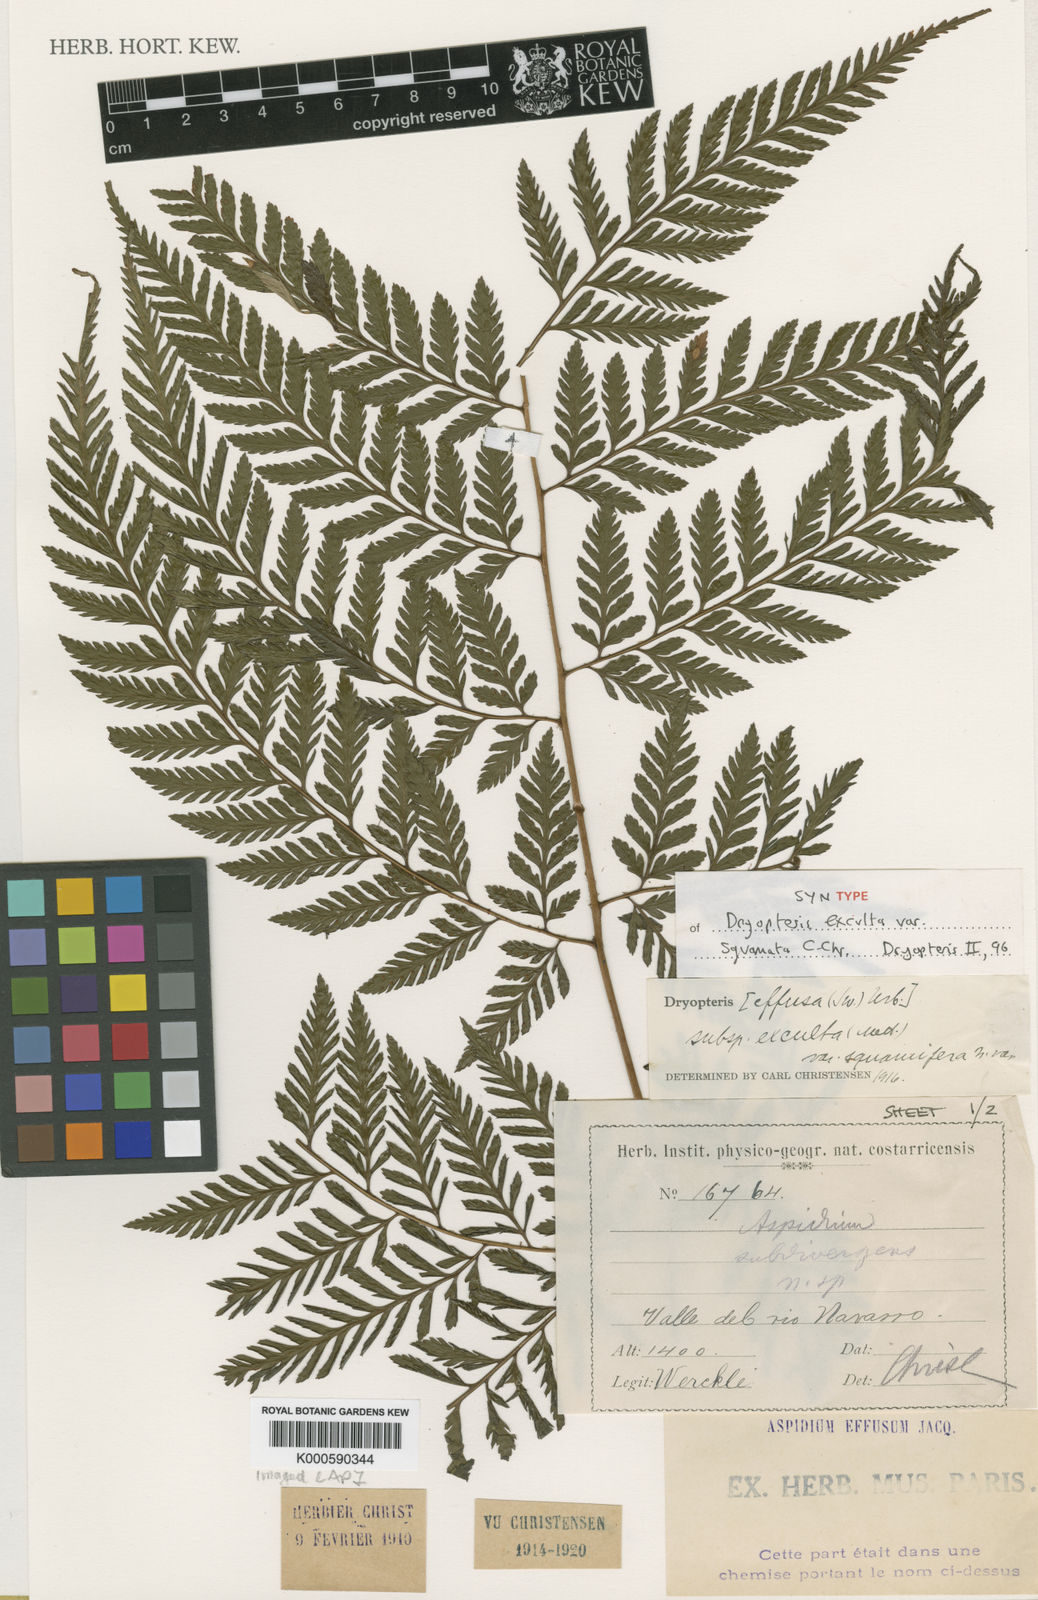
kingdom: Plantae
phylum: Tracheophyta
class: Polypodiopsida
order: Polypodiales
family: Dryopteridaceae
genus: Parapolystichum
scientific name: Parapolystichum excultum
